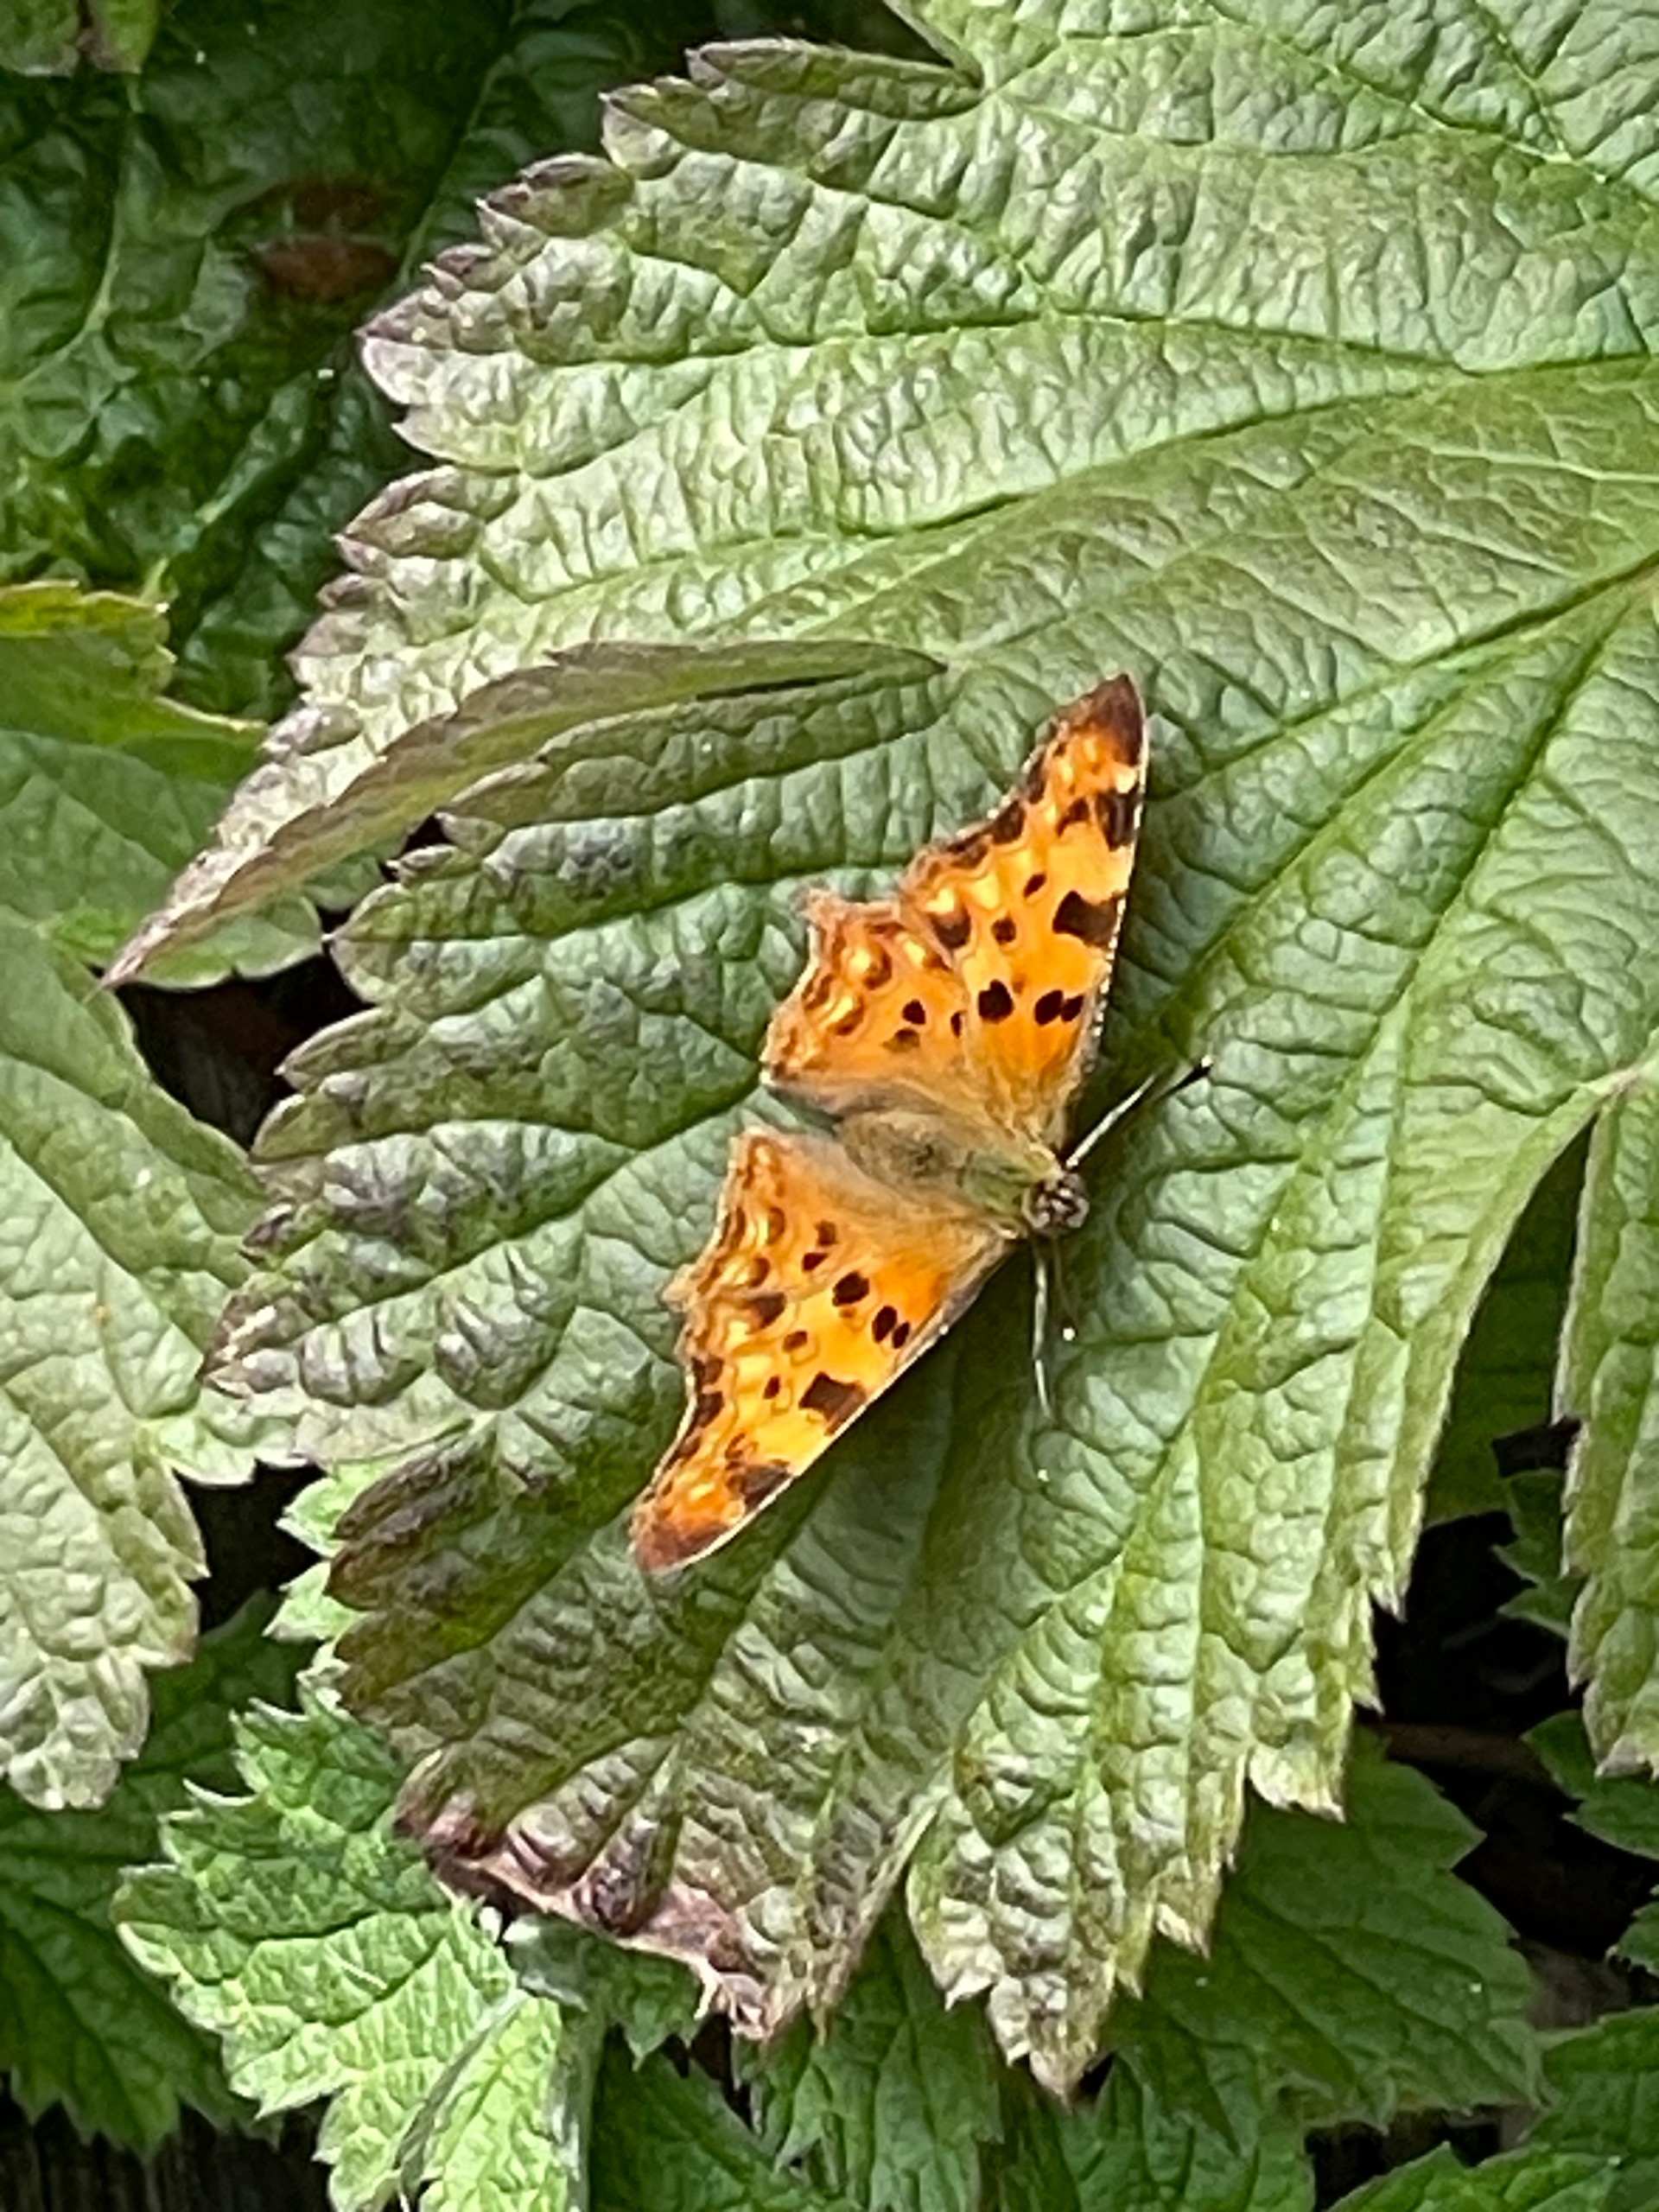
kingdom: Animalia
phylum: Arthropoda
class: Insecta
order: Lepidoptera
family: Nymphalidae
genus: Polygonia
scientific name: Polygonia c-album
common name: Det hvide C
